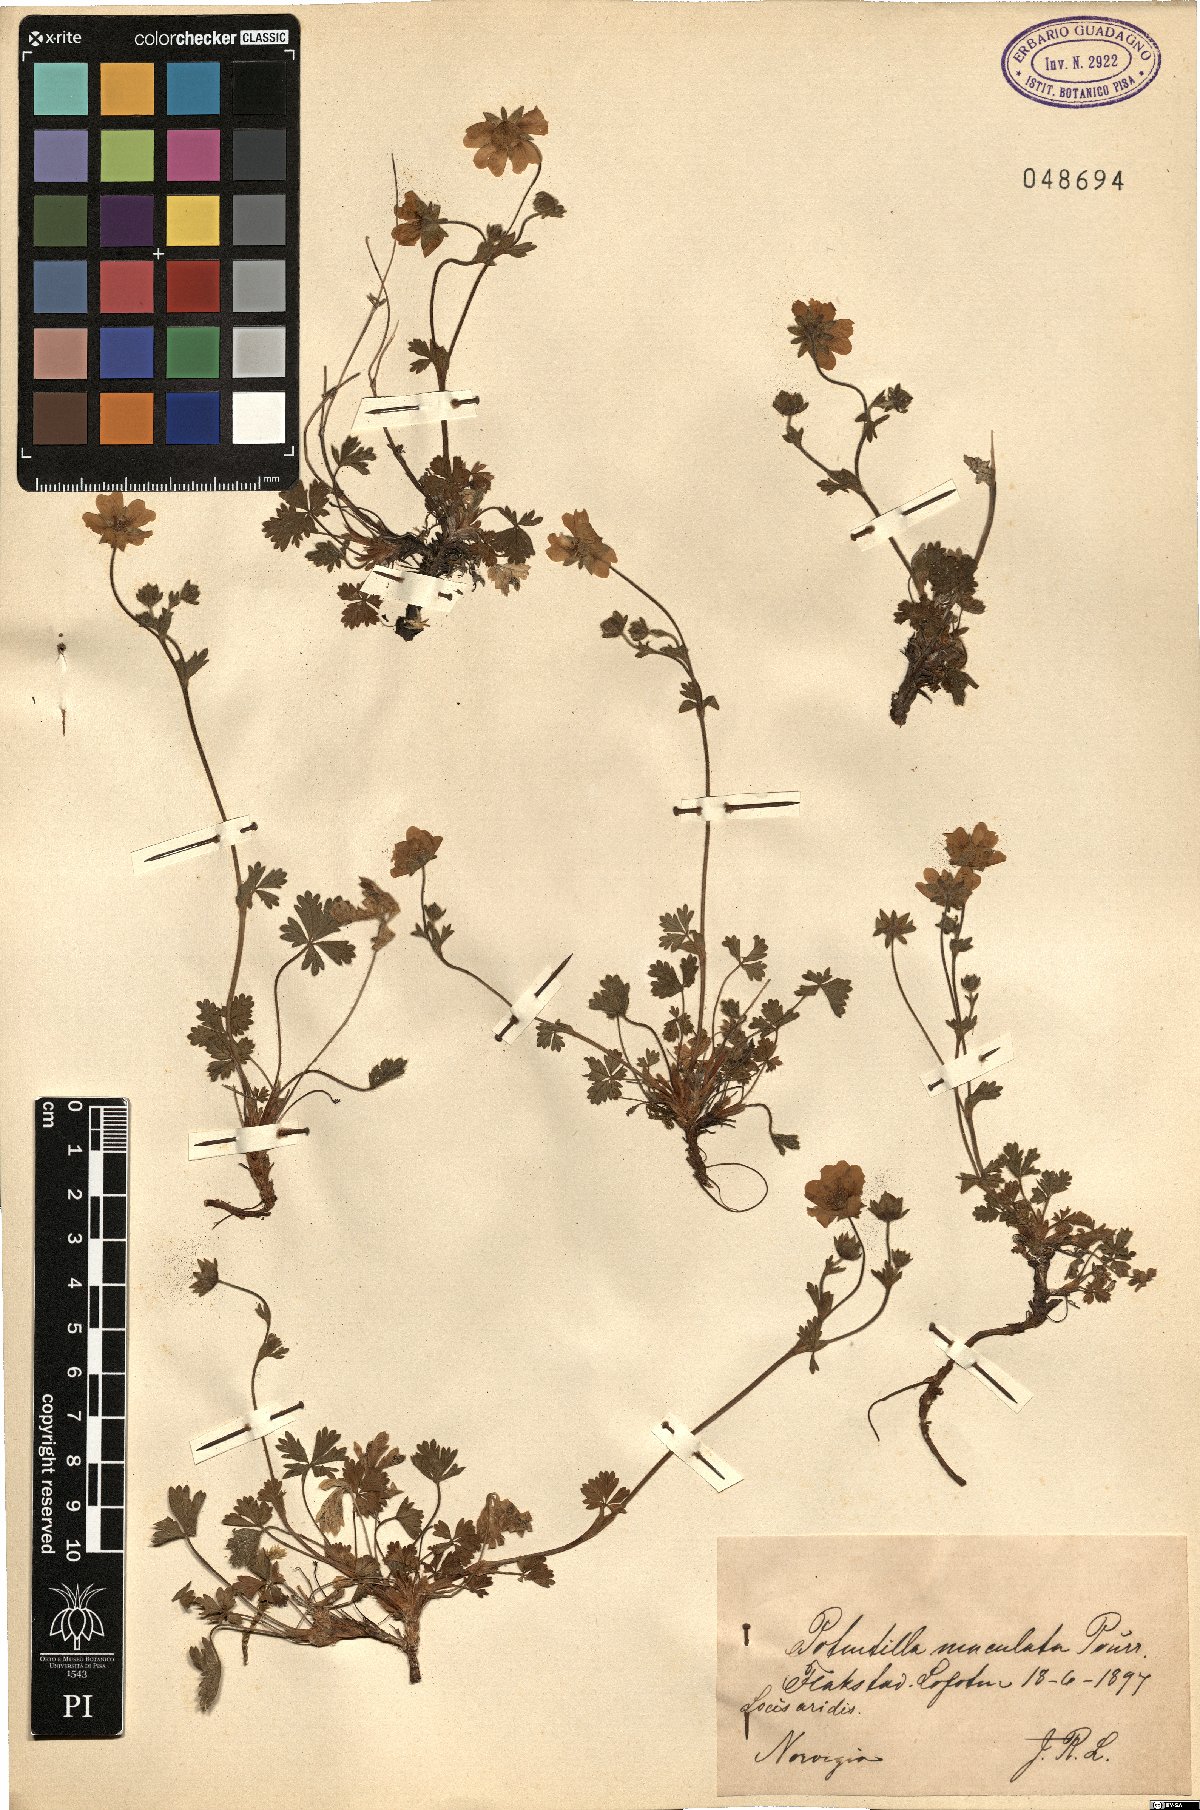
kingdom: Plantae
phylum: Tracheophyta
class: Magnoliopsida
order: Rosales
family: Rosaceae
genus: Potentilla
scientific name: Potentilla crantzii
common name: Alpine cinquefoil
